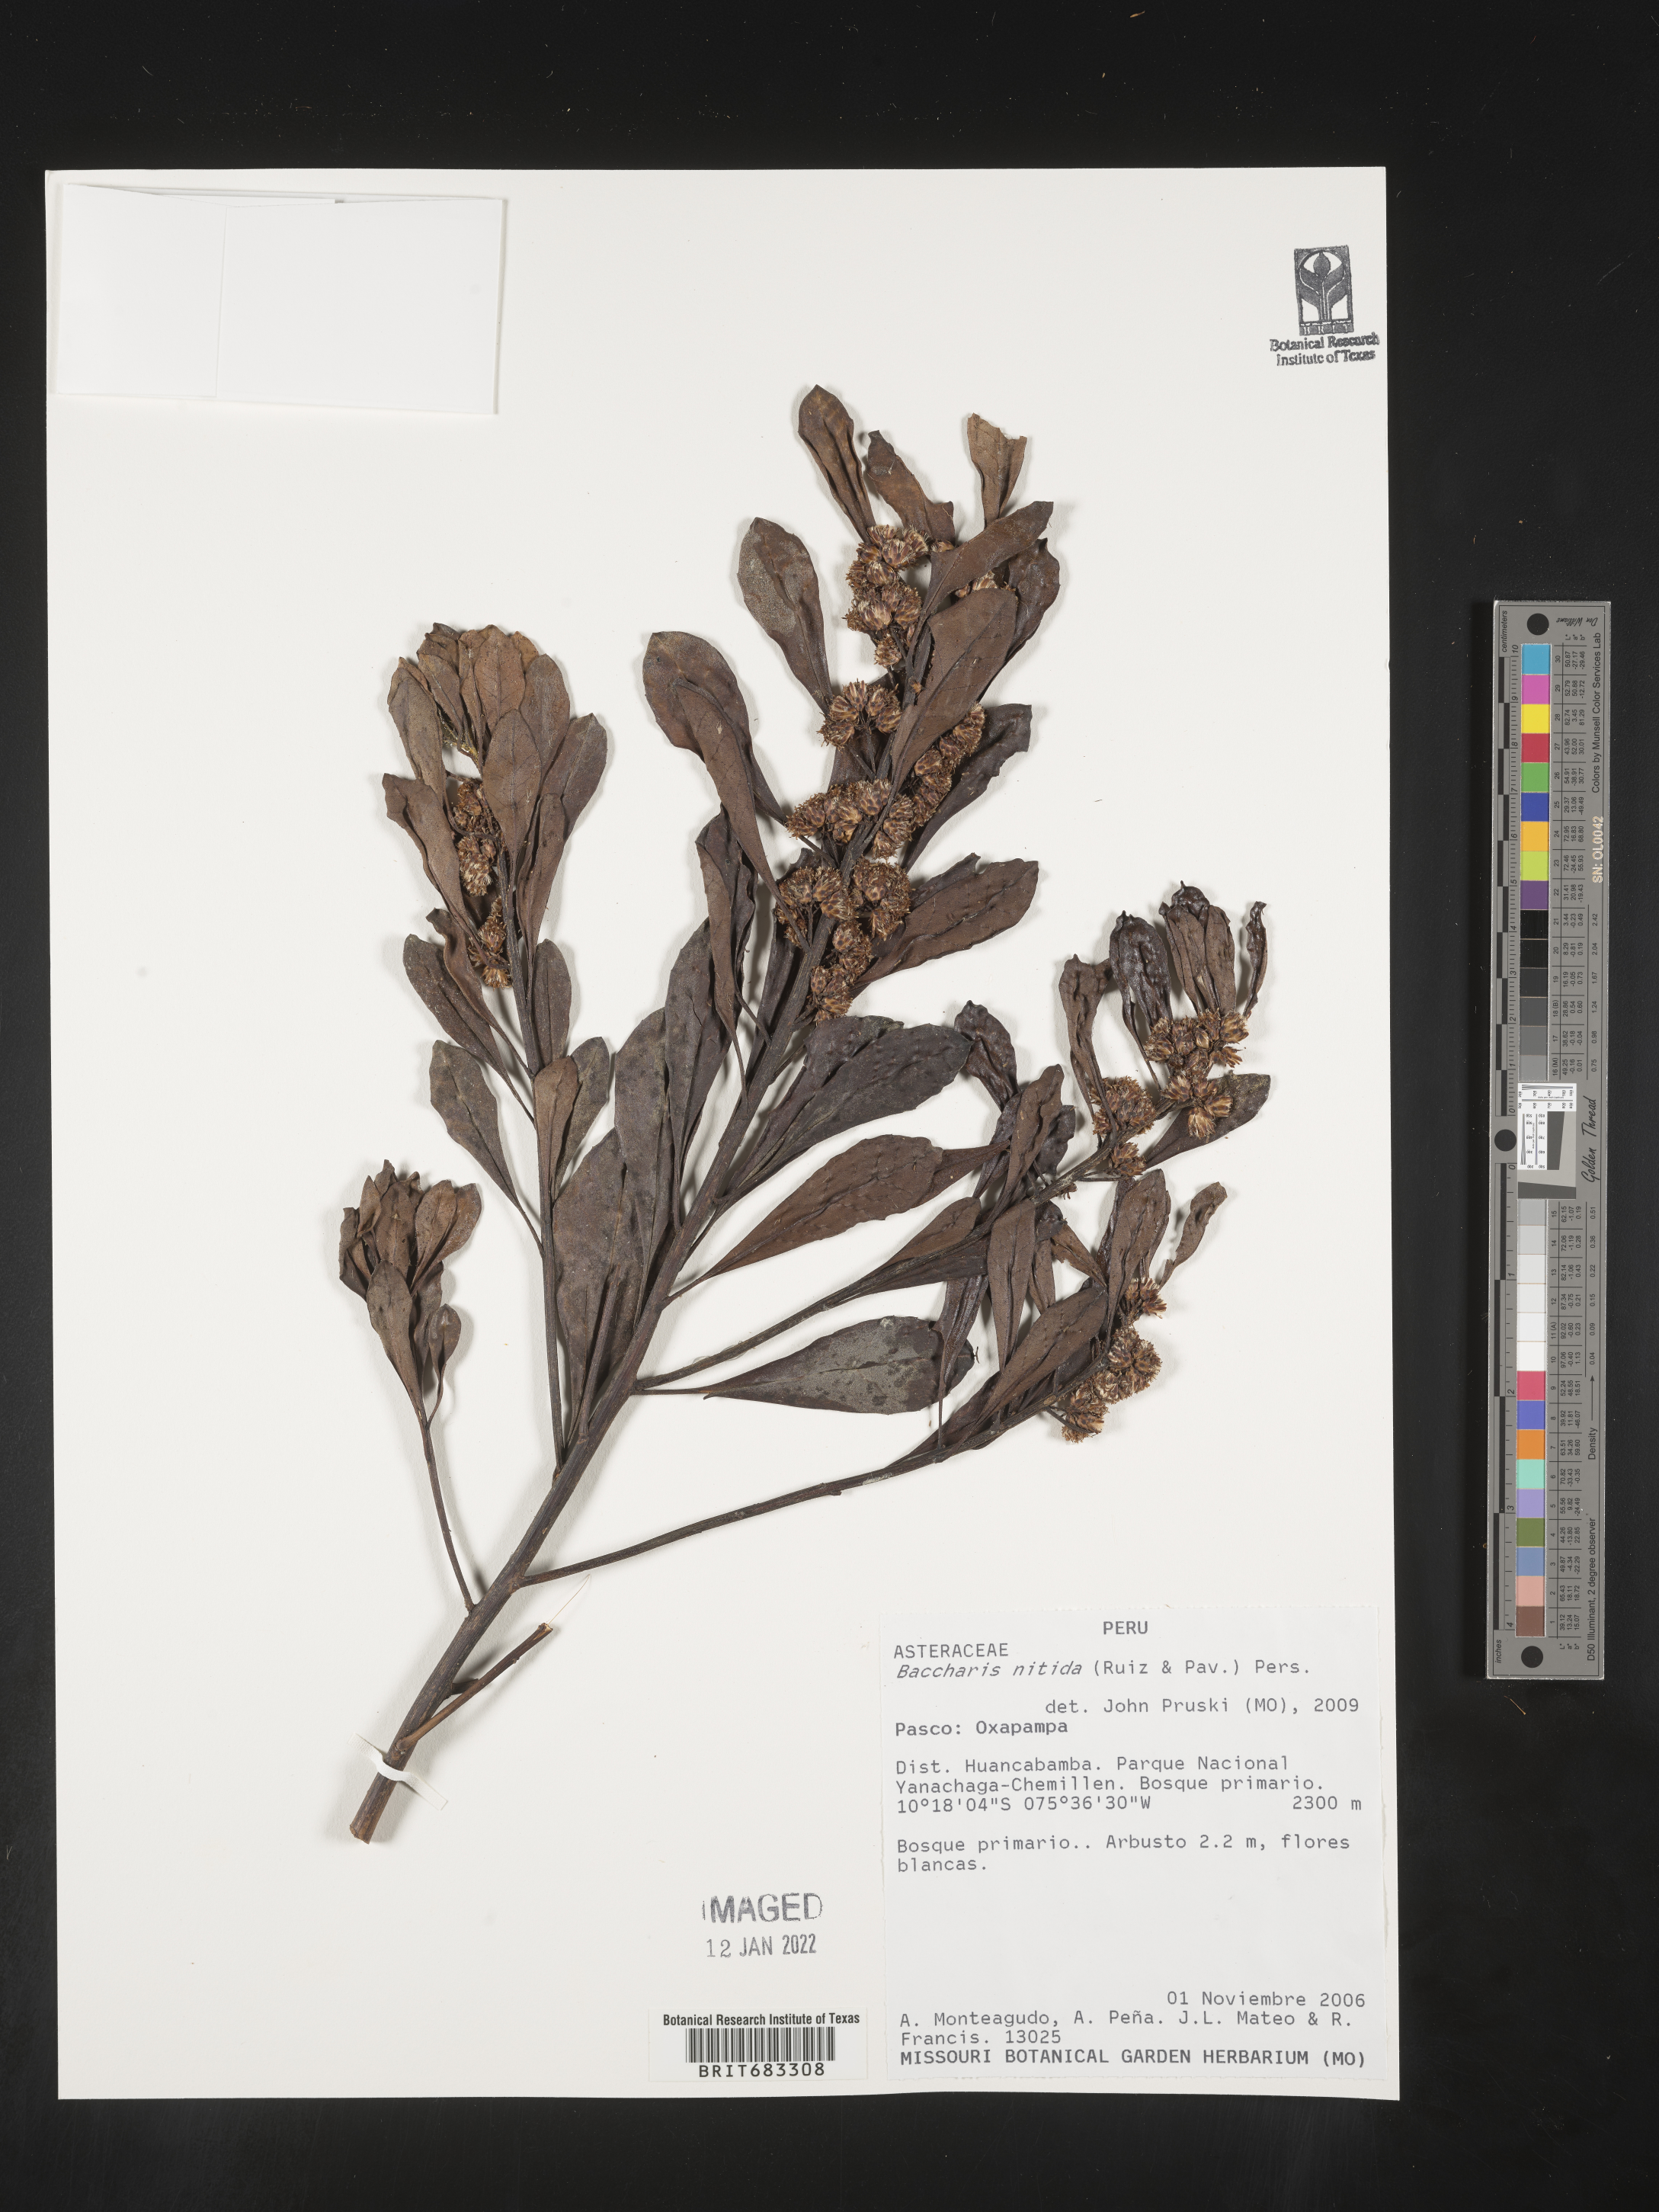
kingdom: Plantae
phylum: Tracheophyta
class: Magnoliopsida
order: Asterales
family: Asteraceae
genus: Baccharis
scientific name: Baccharis
